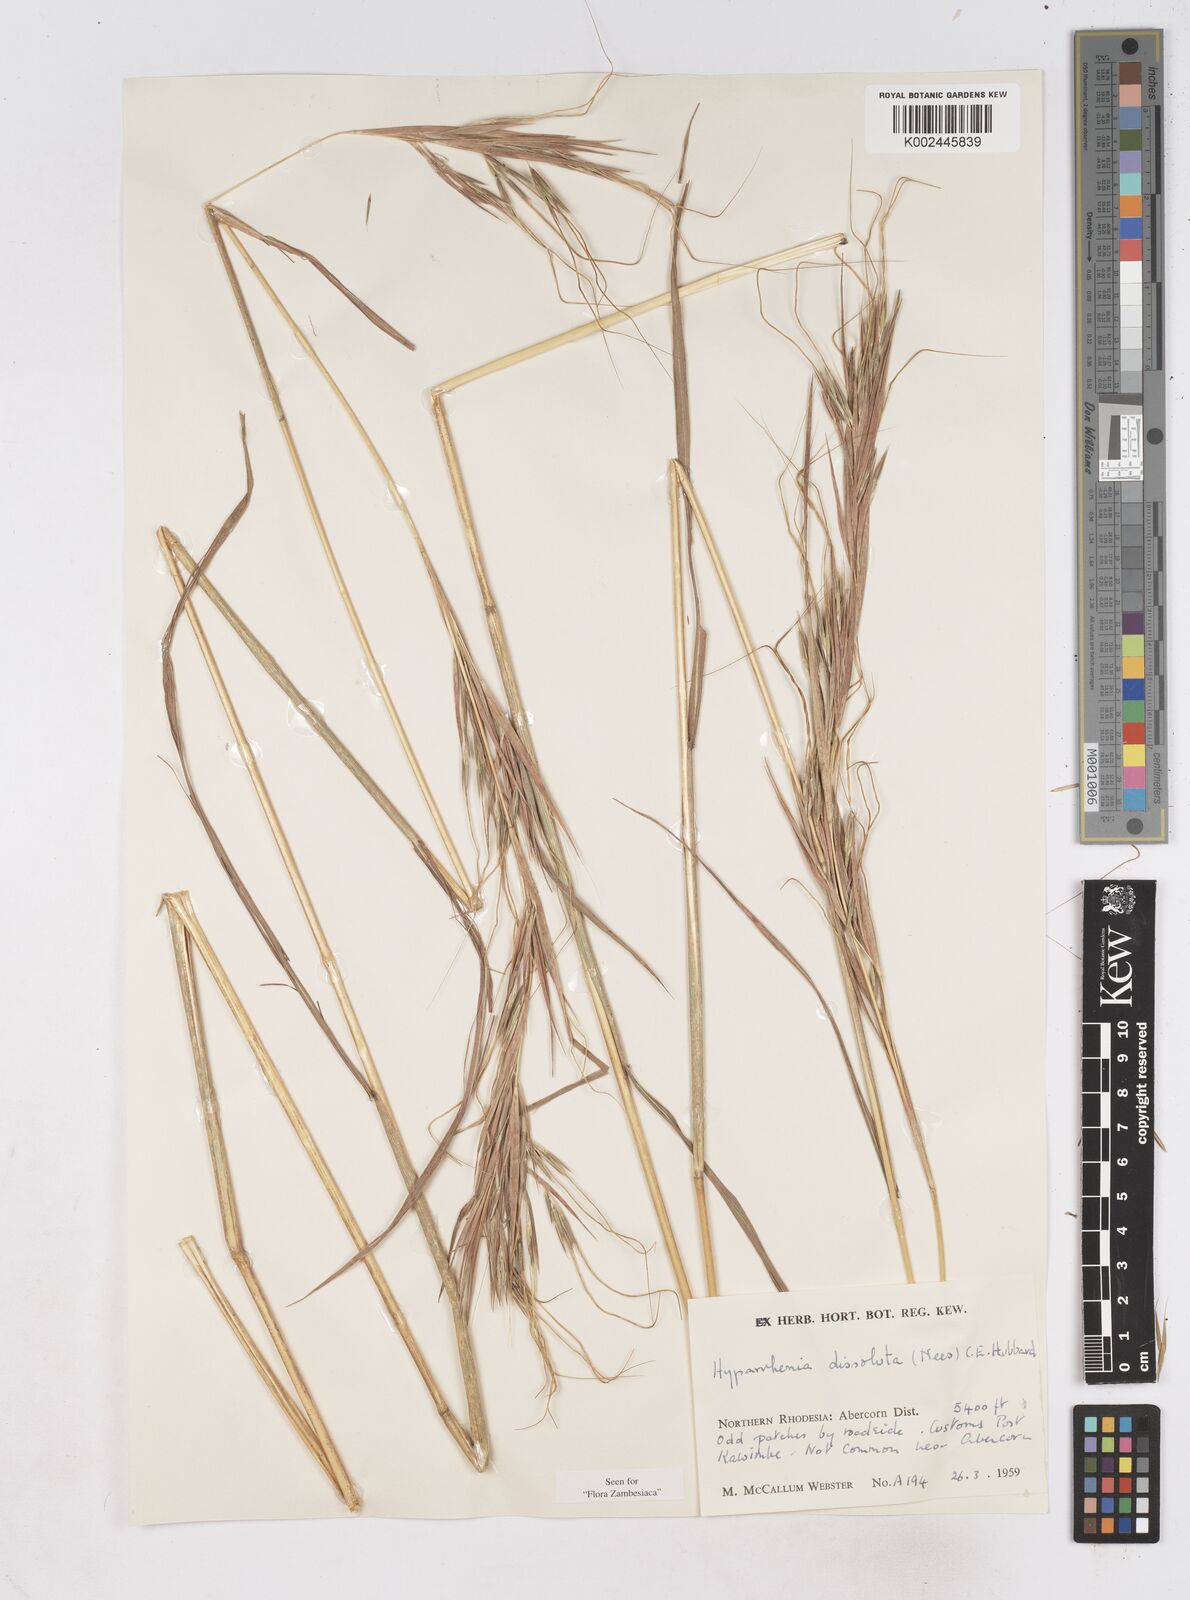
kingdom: Plantae
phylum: Tracheophyta
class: Liliopsida
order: Poales
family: Poaceae
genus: Hyperthelia
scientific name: Hyperthelia dissoluta
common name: Yellow thatching grass
